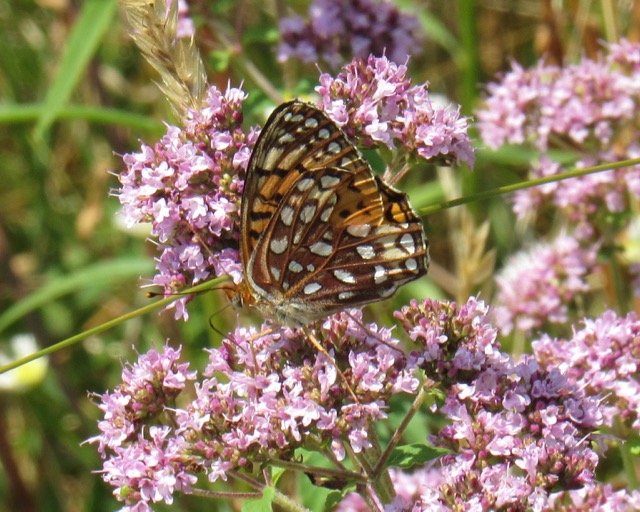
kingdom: Animalia
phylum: Arthropoda
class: Insecta
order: Lepidoptera
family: Nymphalidae
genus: Speyeria
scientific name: Speyeria atlantis
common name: Atlantis Fritillary
